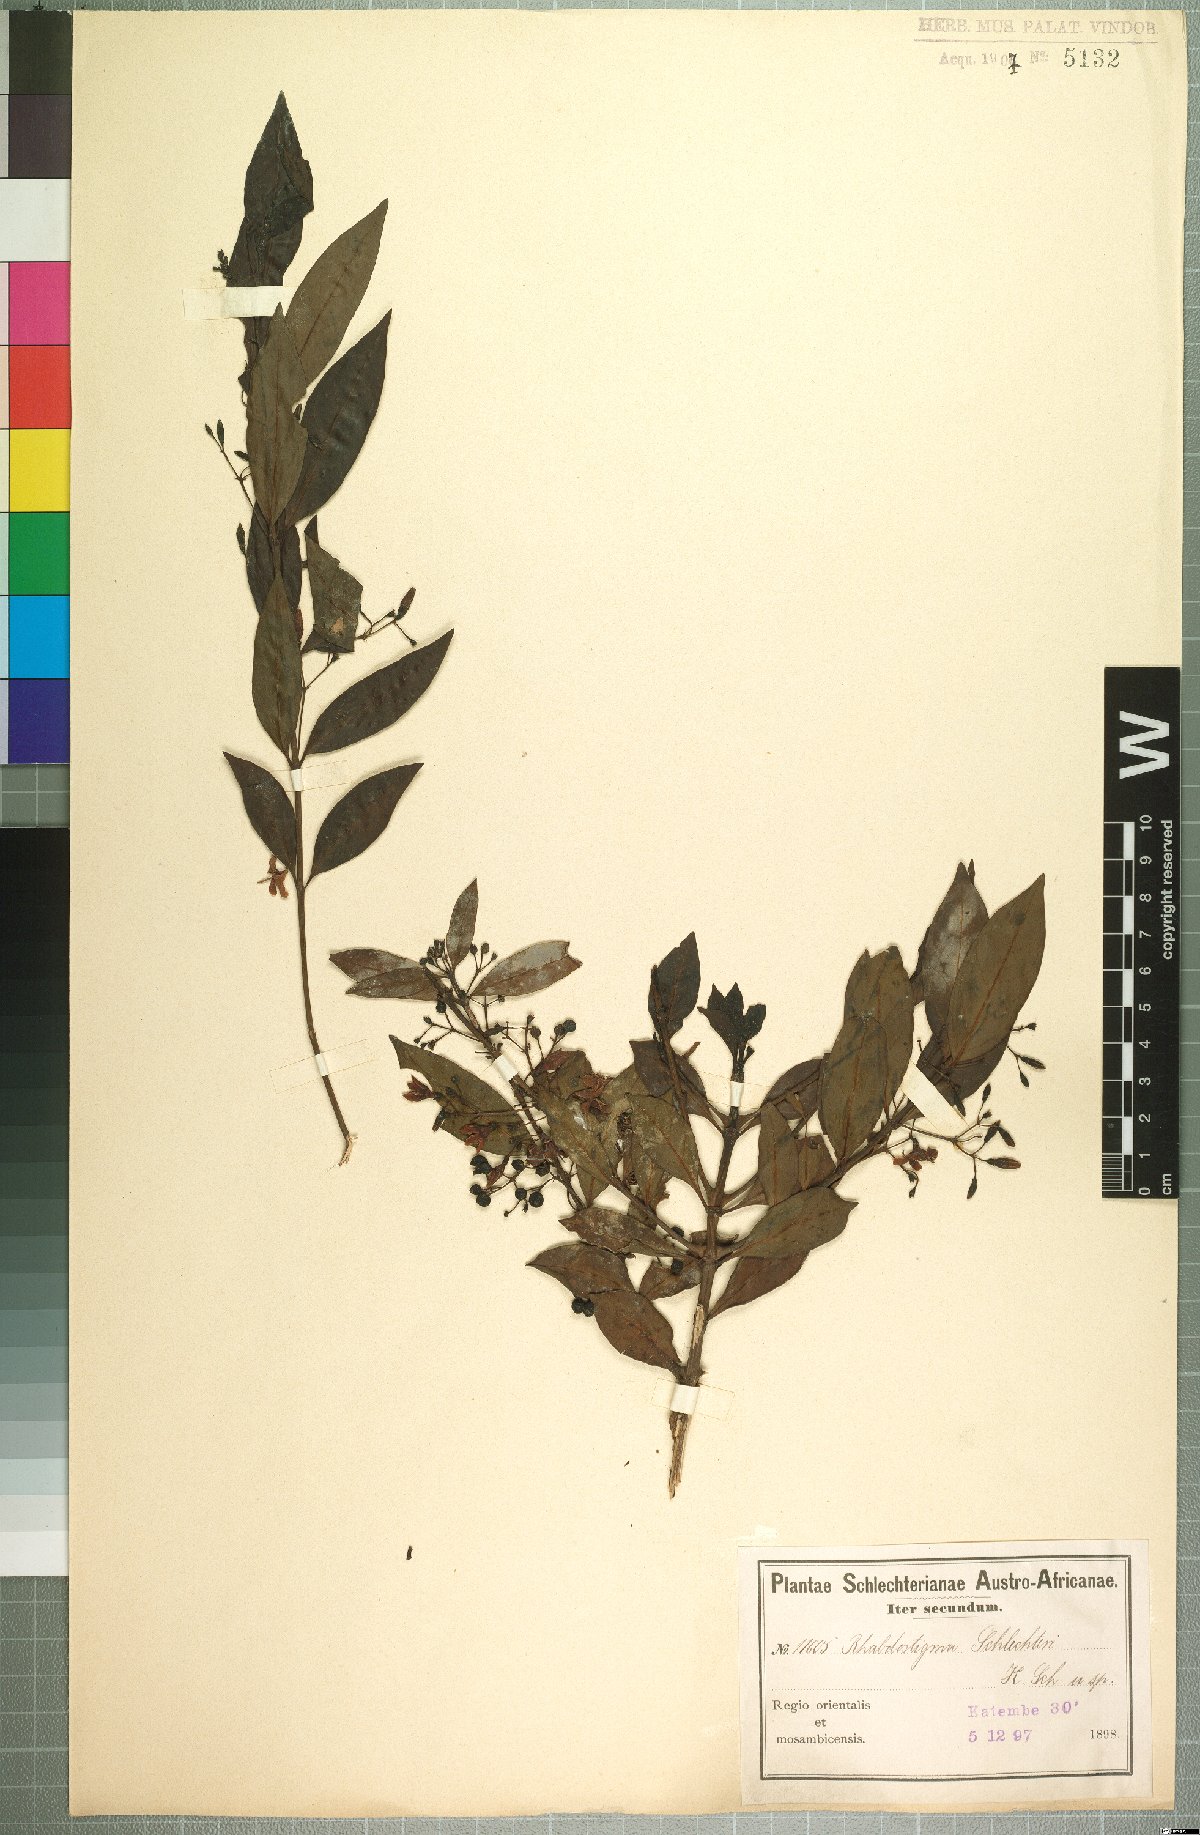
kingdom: Plantae
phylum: Tracheophyta
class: Magnoliopsida
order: Gentianales
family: Rubiaceae
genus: Kraussia
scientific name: Kraussia floribunda
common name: Rhino-coffee
